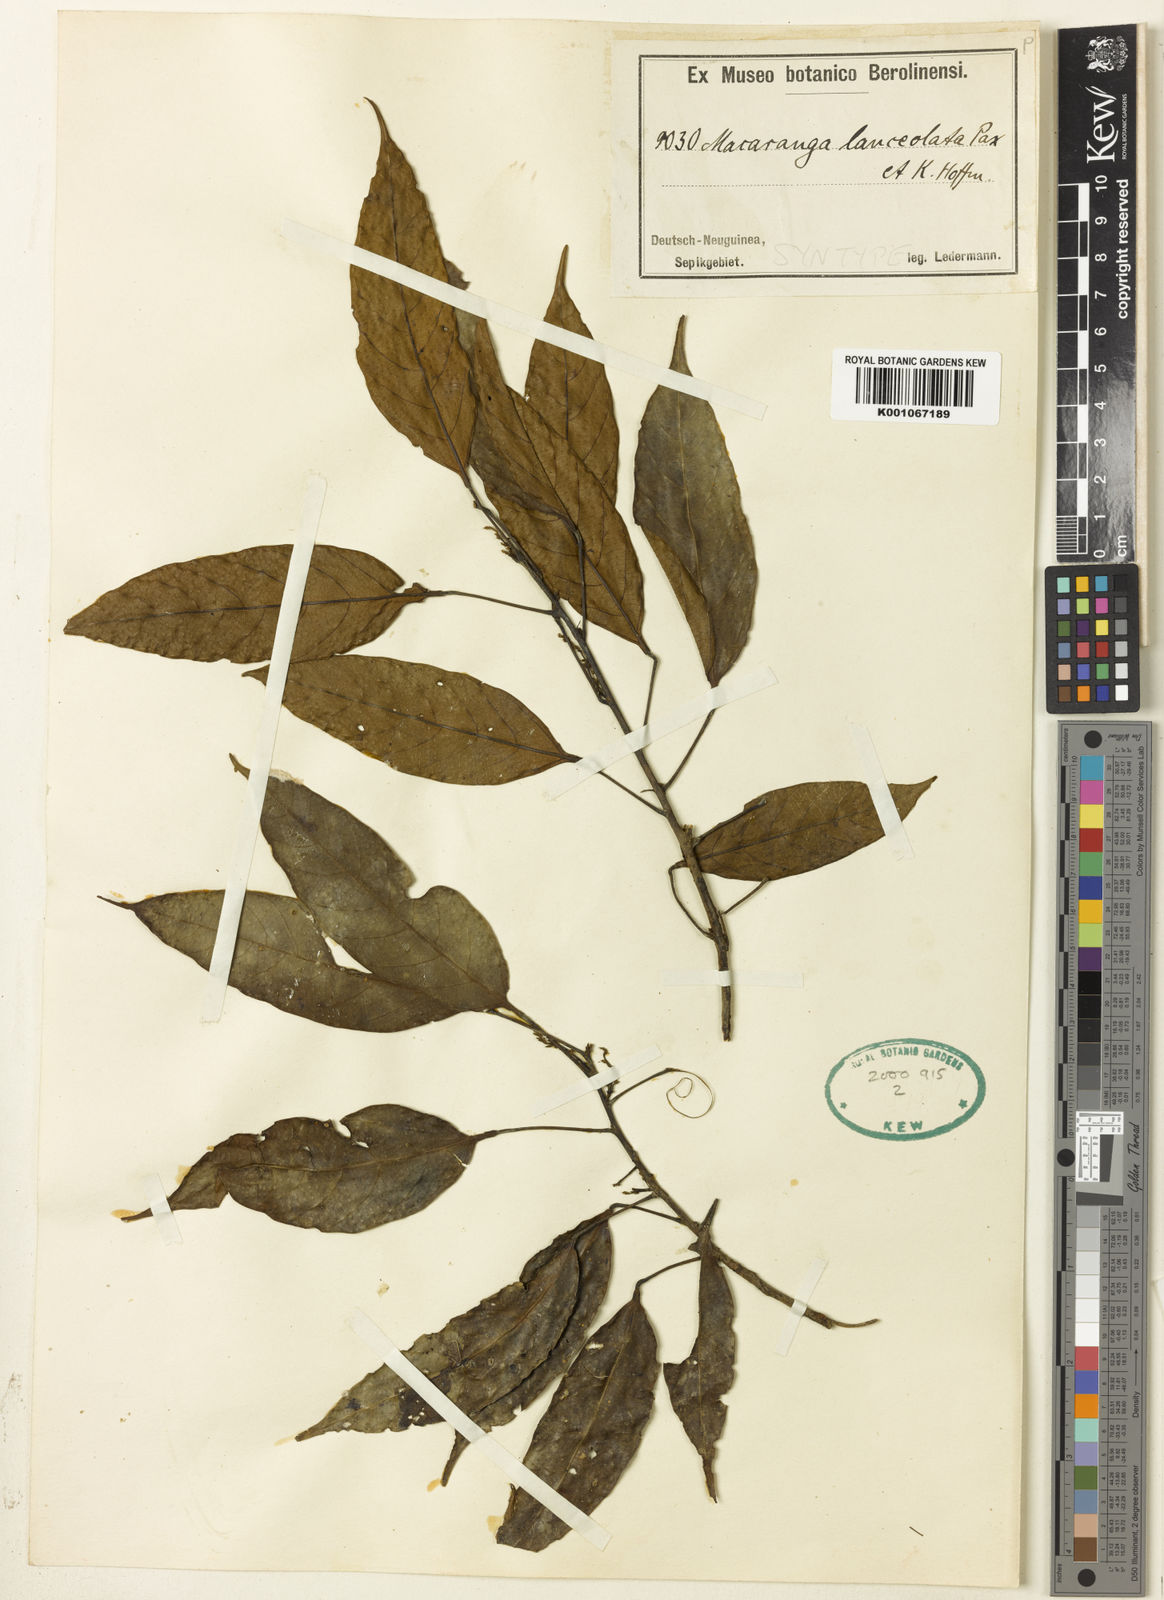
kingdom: Plantae
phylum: Tracheophyta
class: Magnoliopsida
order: Malpighiales
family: Euphorbiaceae
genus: Macaranga
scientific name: Macaranga lanceolata
